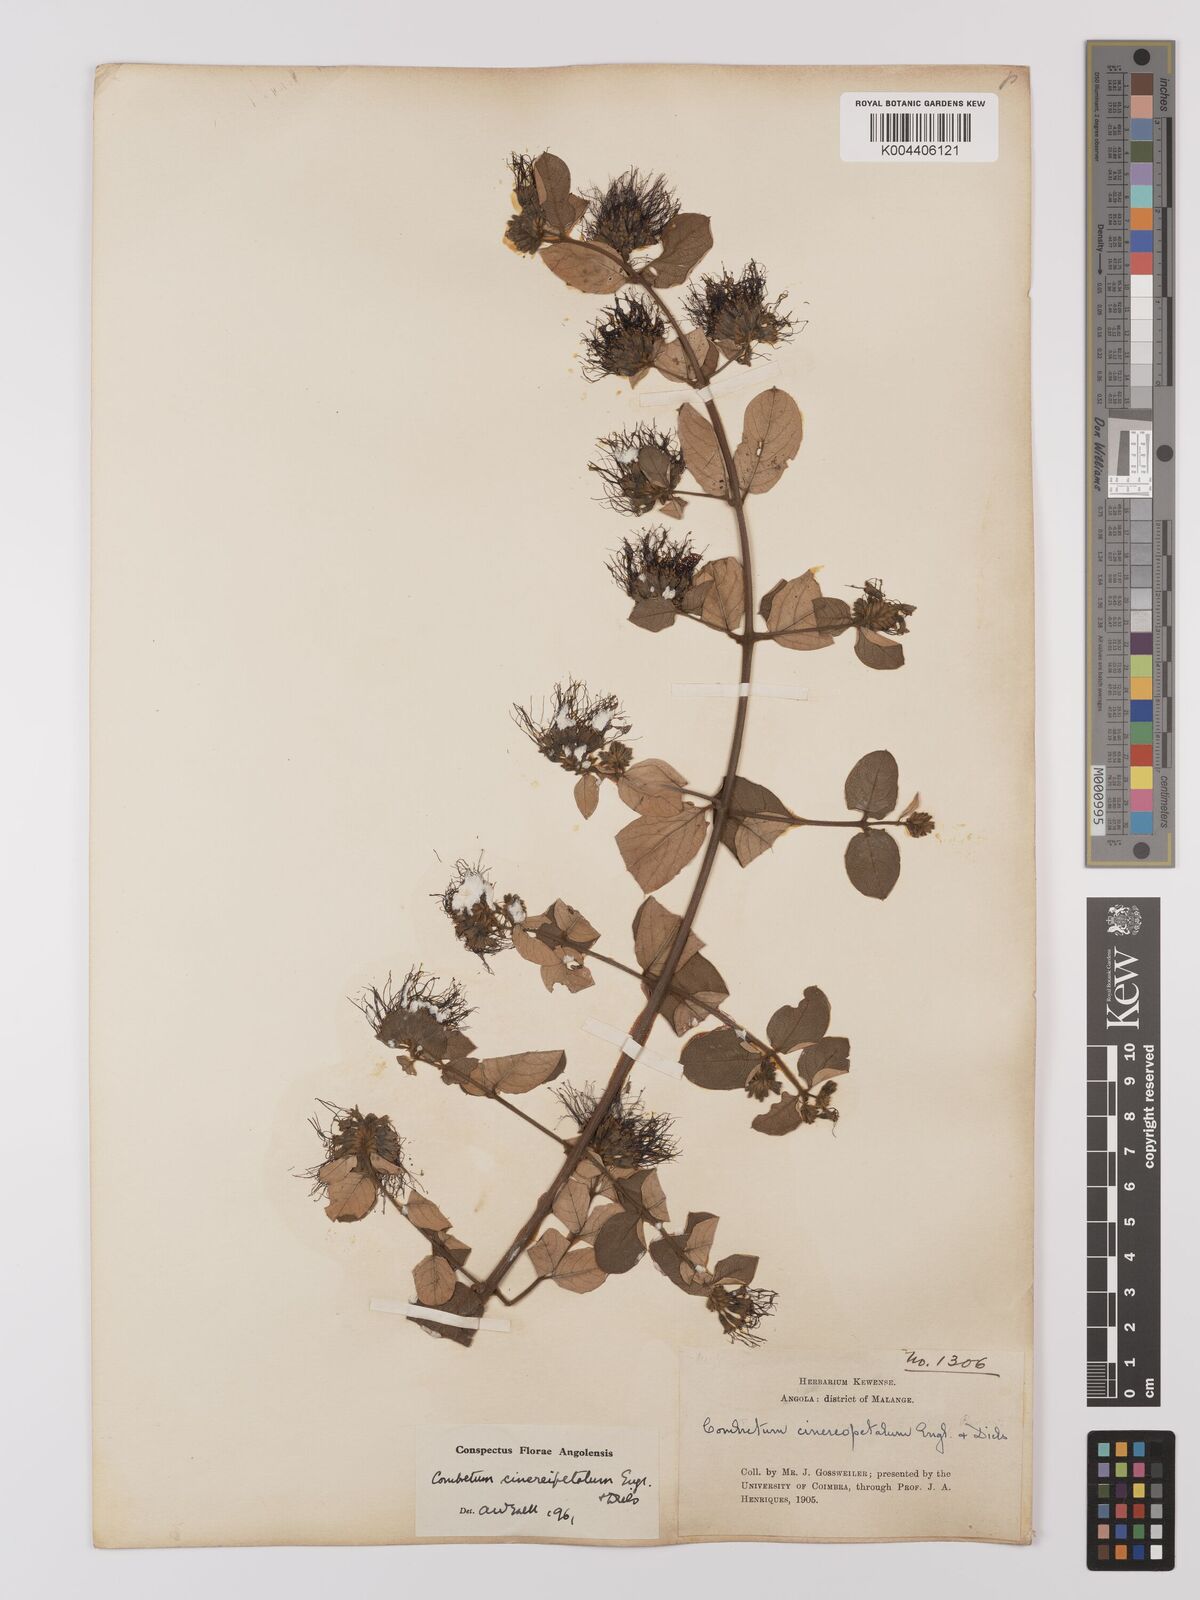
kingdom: Plantae
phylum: Tracheophyta
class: Magnoliopsida
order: Myrtales
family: Combretaceae
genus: Combretum
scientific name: Combretum cinereopetalum
